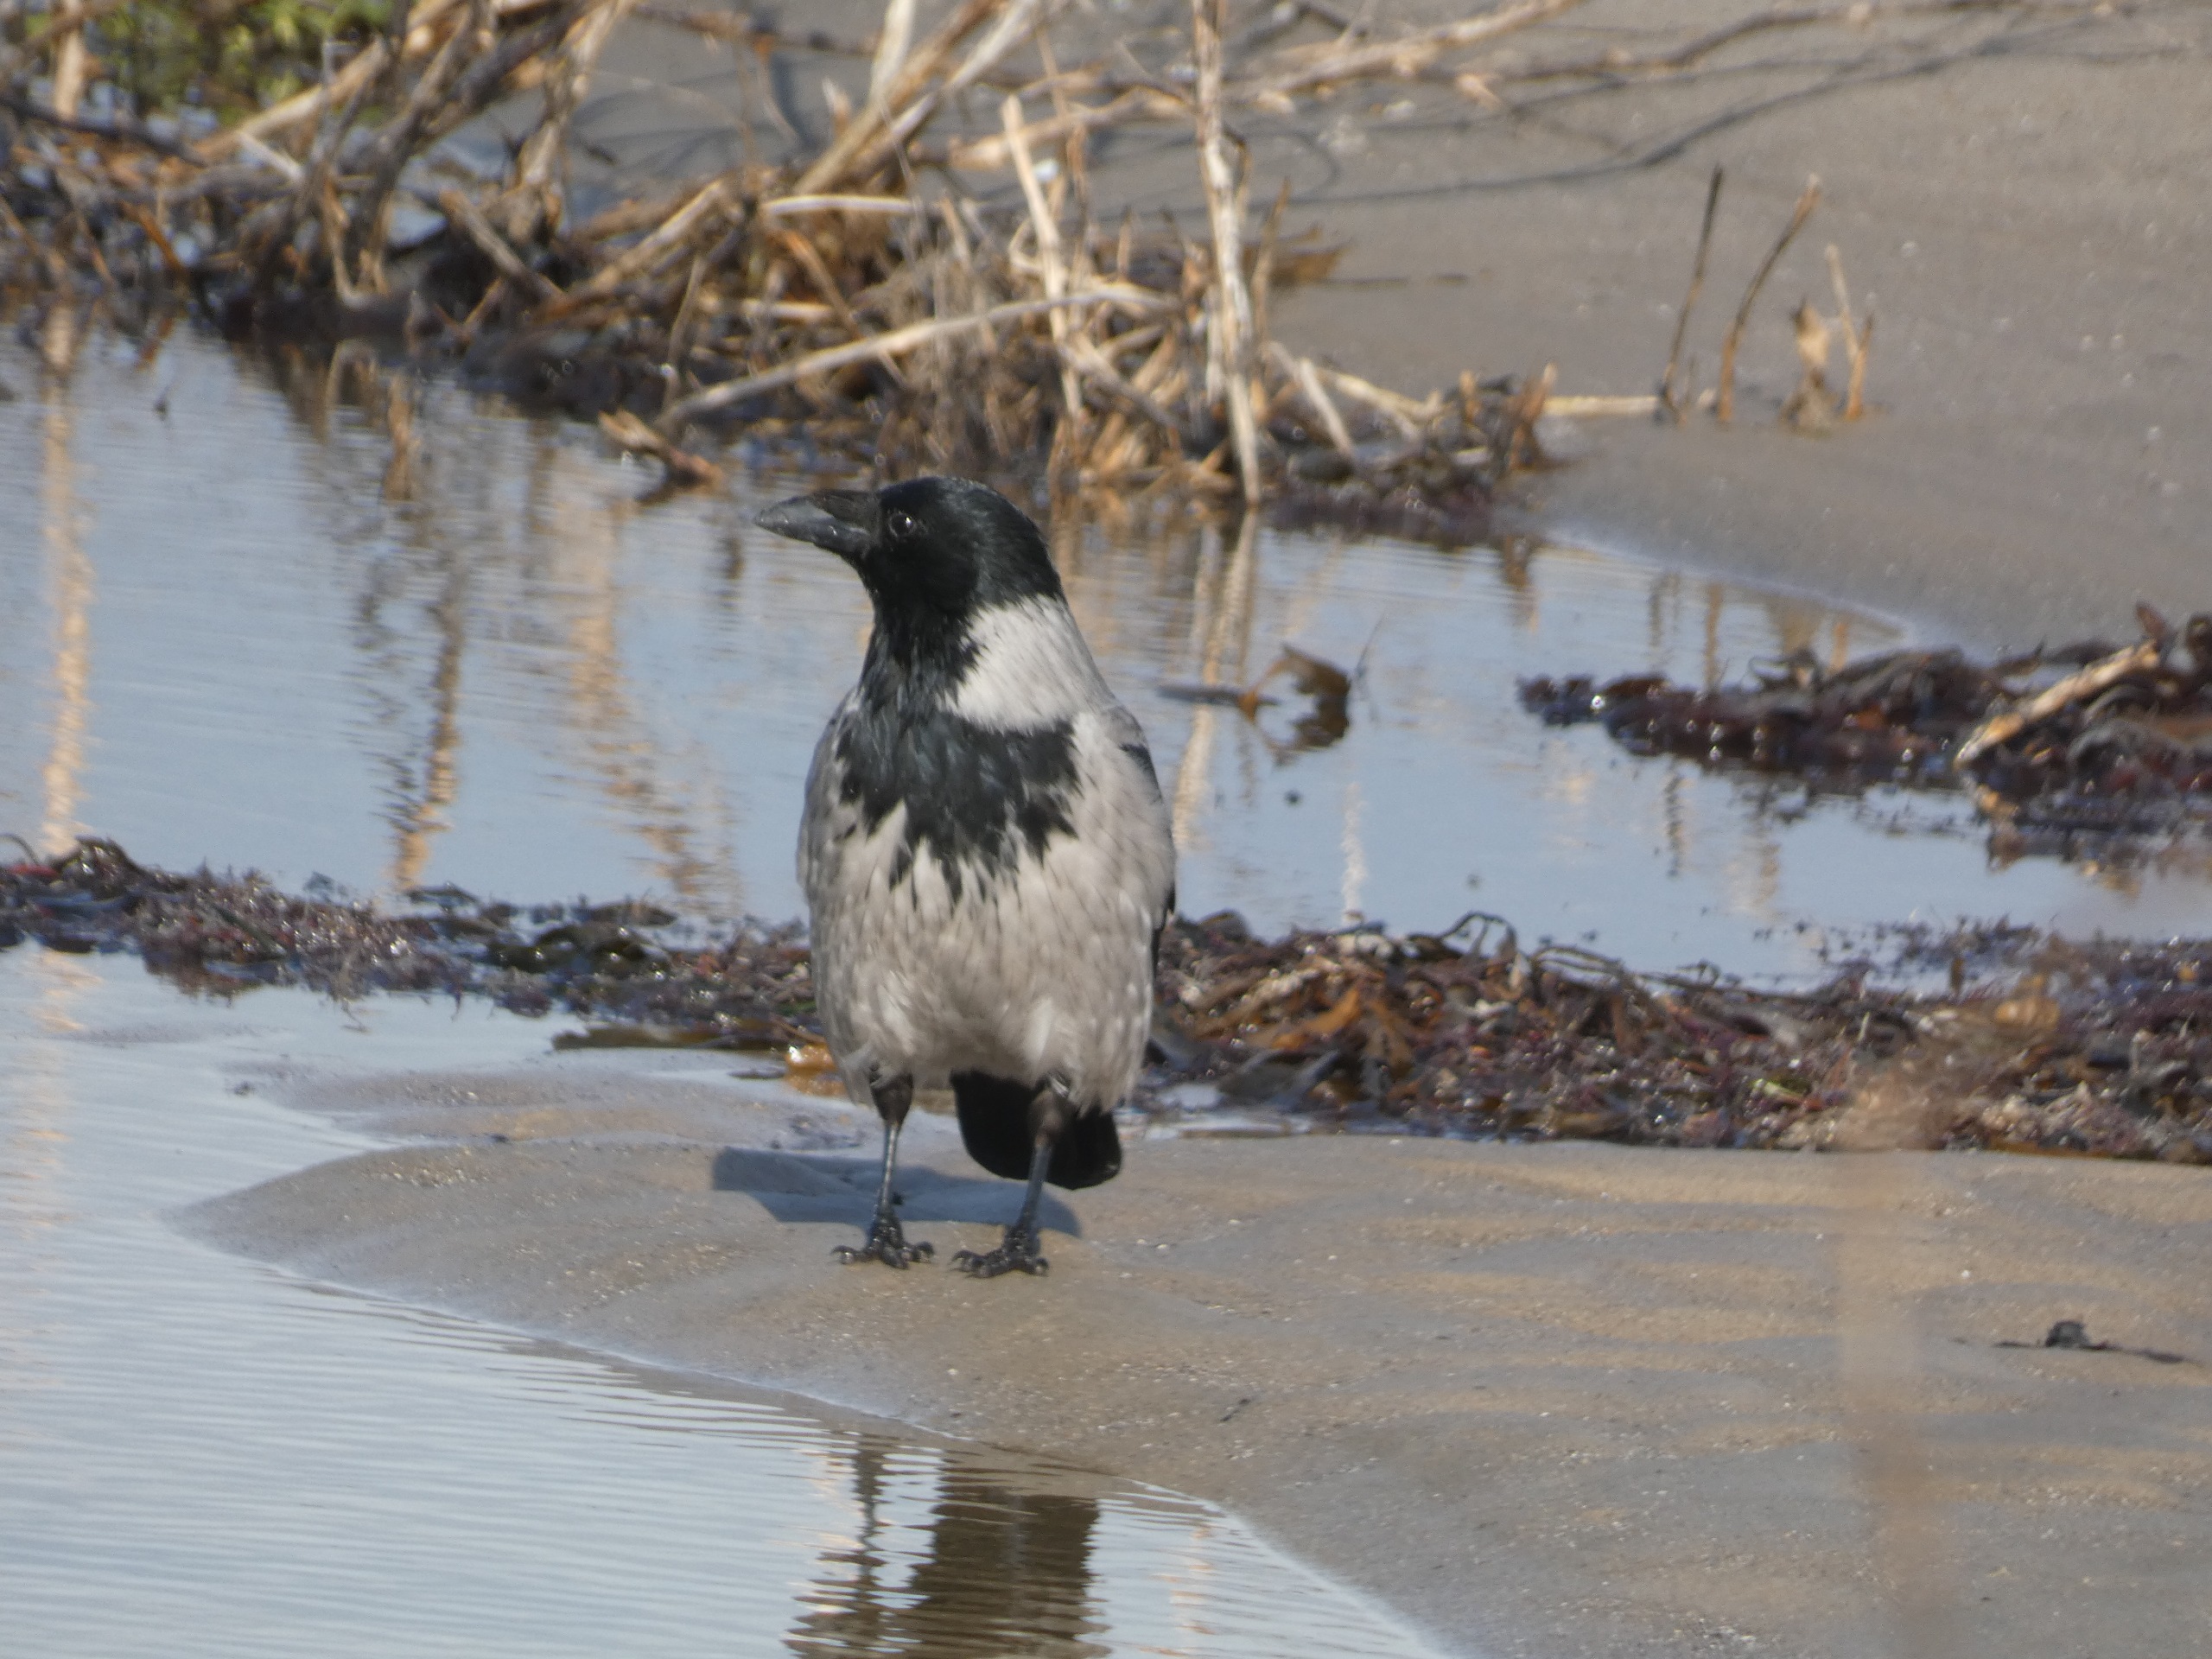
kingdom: Animalia
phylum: Chordata
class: Aves
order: Passeriformes
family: Corvidae
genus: Corvus
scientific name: Corvus cornix
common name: Gråkrage
